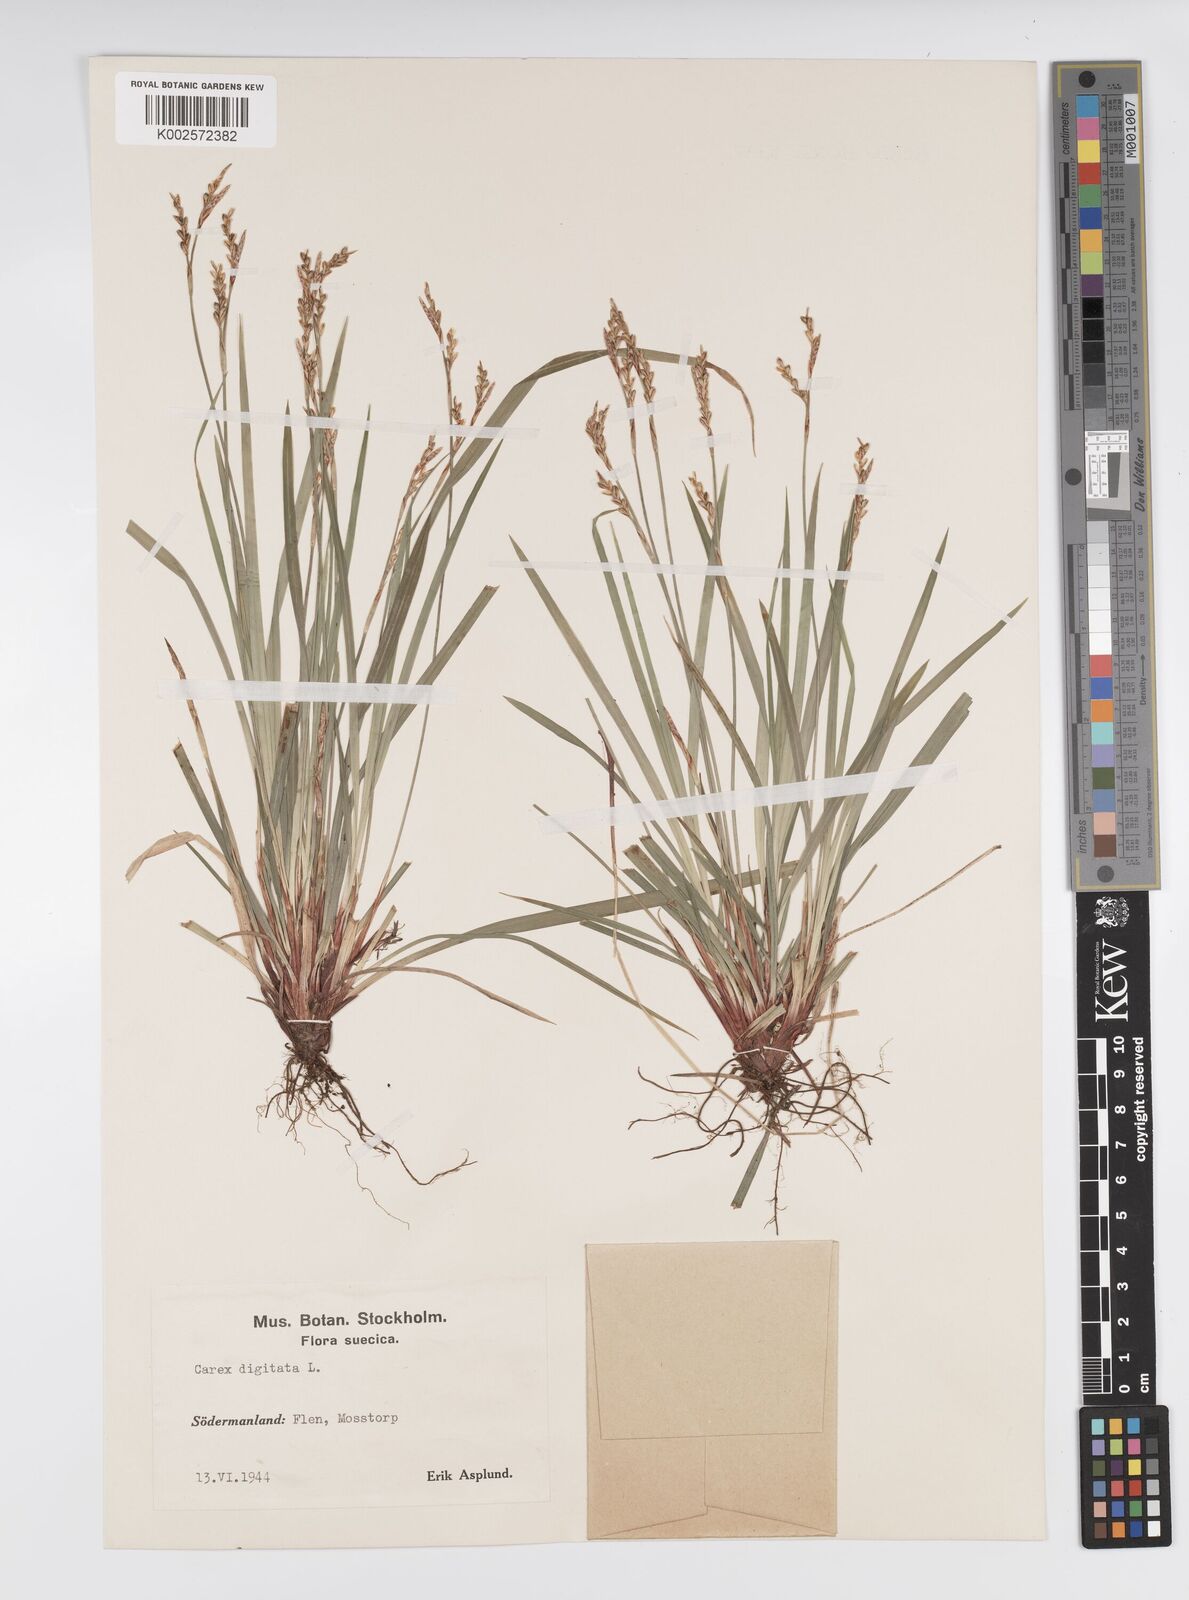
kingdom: Plantae
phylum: Tracheophyta
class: Liliopsida
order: Poales
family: Cyperaceae
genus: Carex
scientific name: Carex digitata
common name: Fingered sedge
